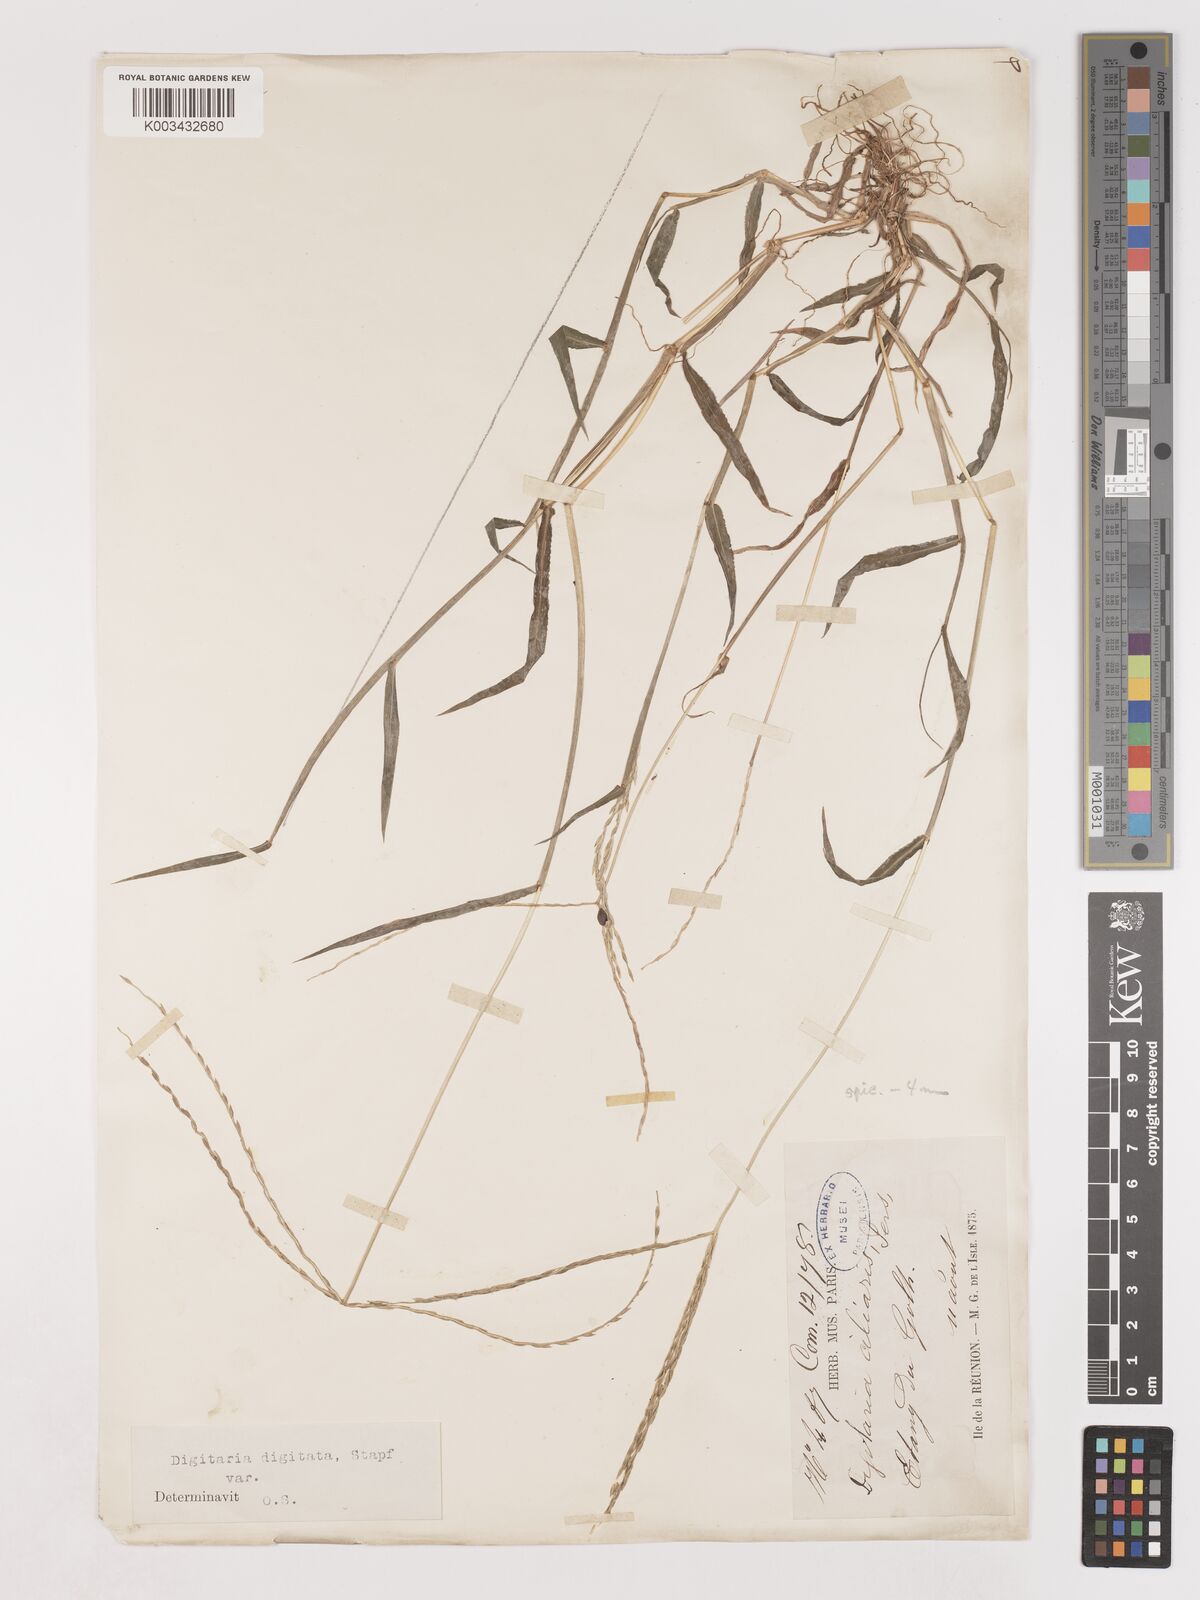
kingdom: Plantae
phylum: Tracheophyta
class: Liliopsida
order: Poales
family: Poaceae
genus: Digitaria
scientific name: Digitaria ciliaris
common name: Tropical finger-grass
